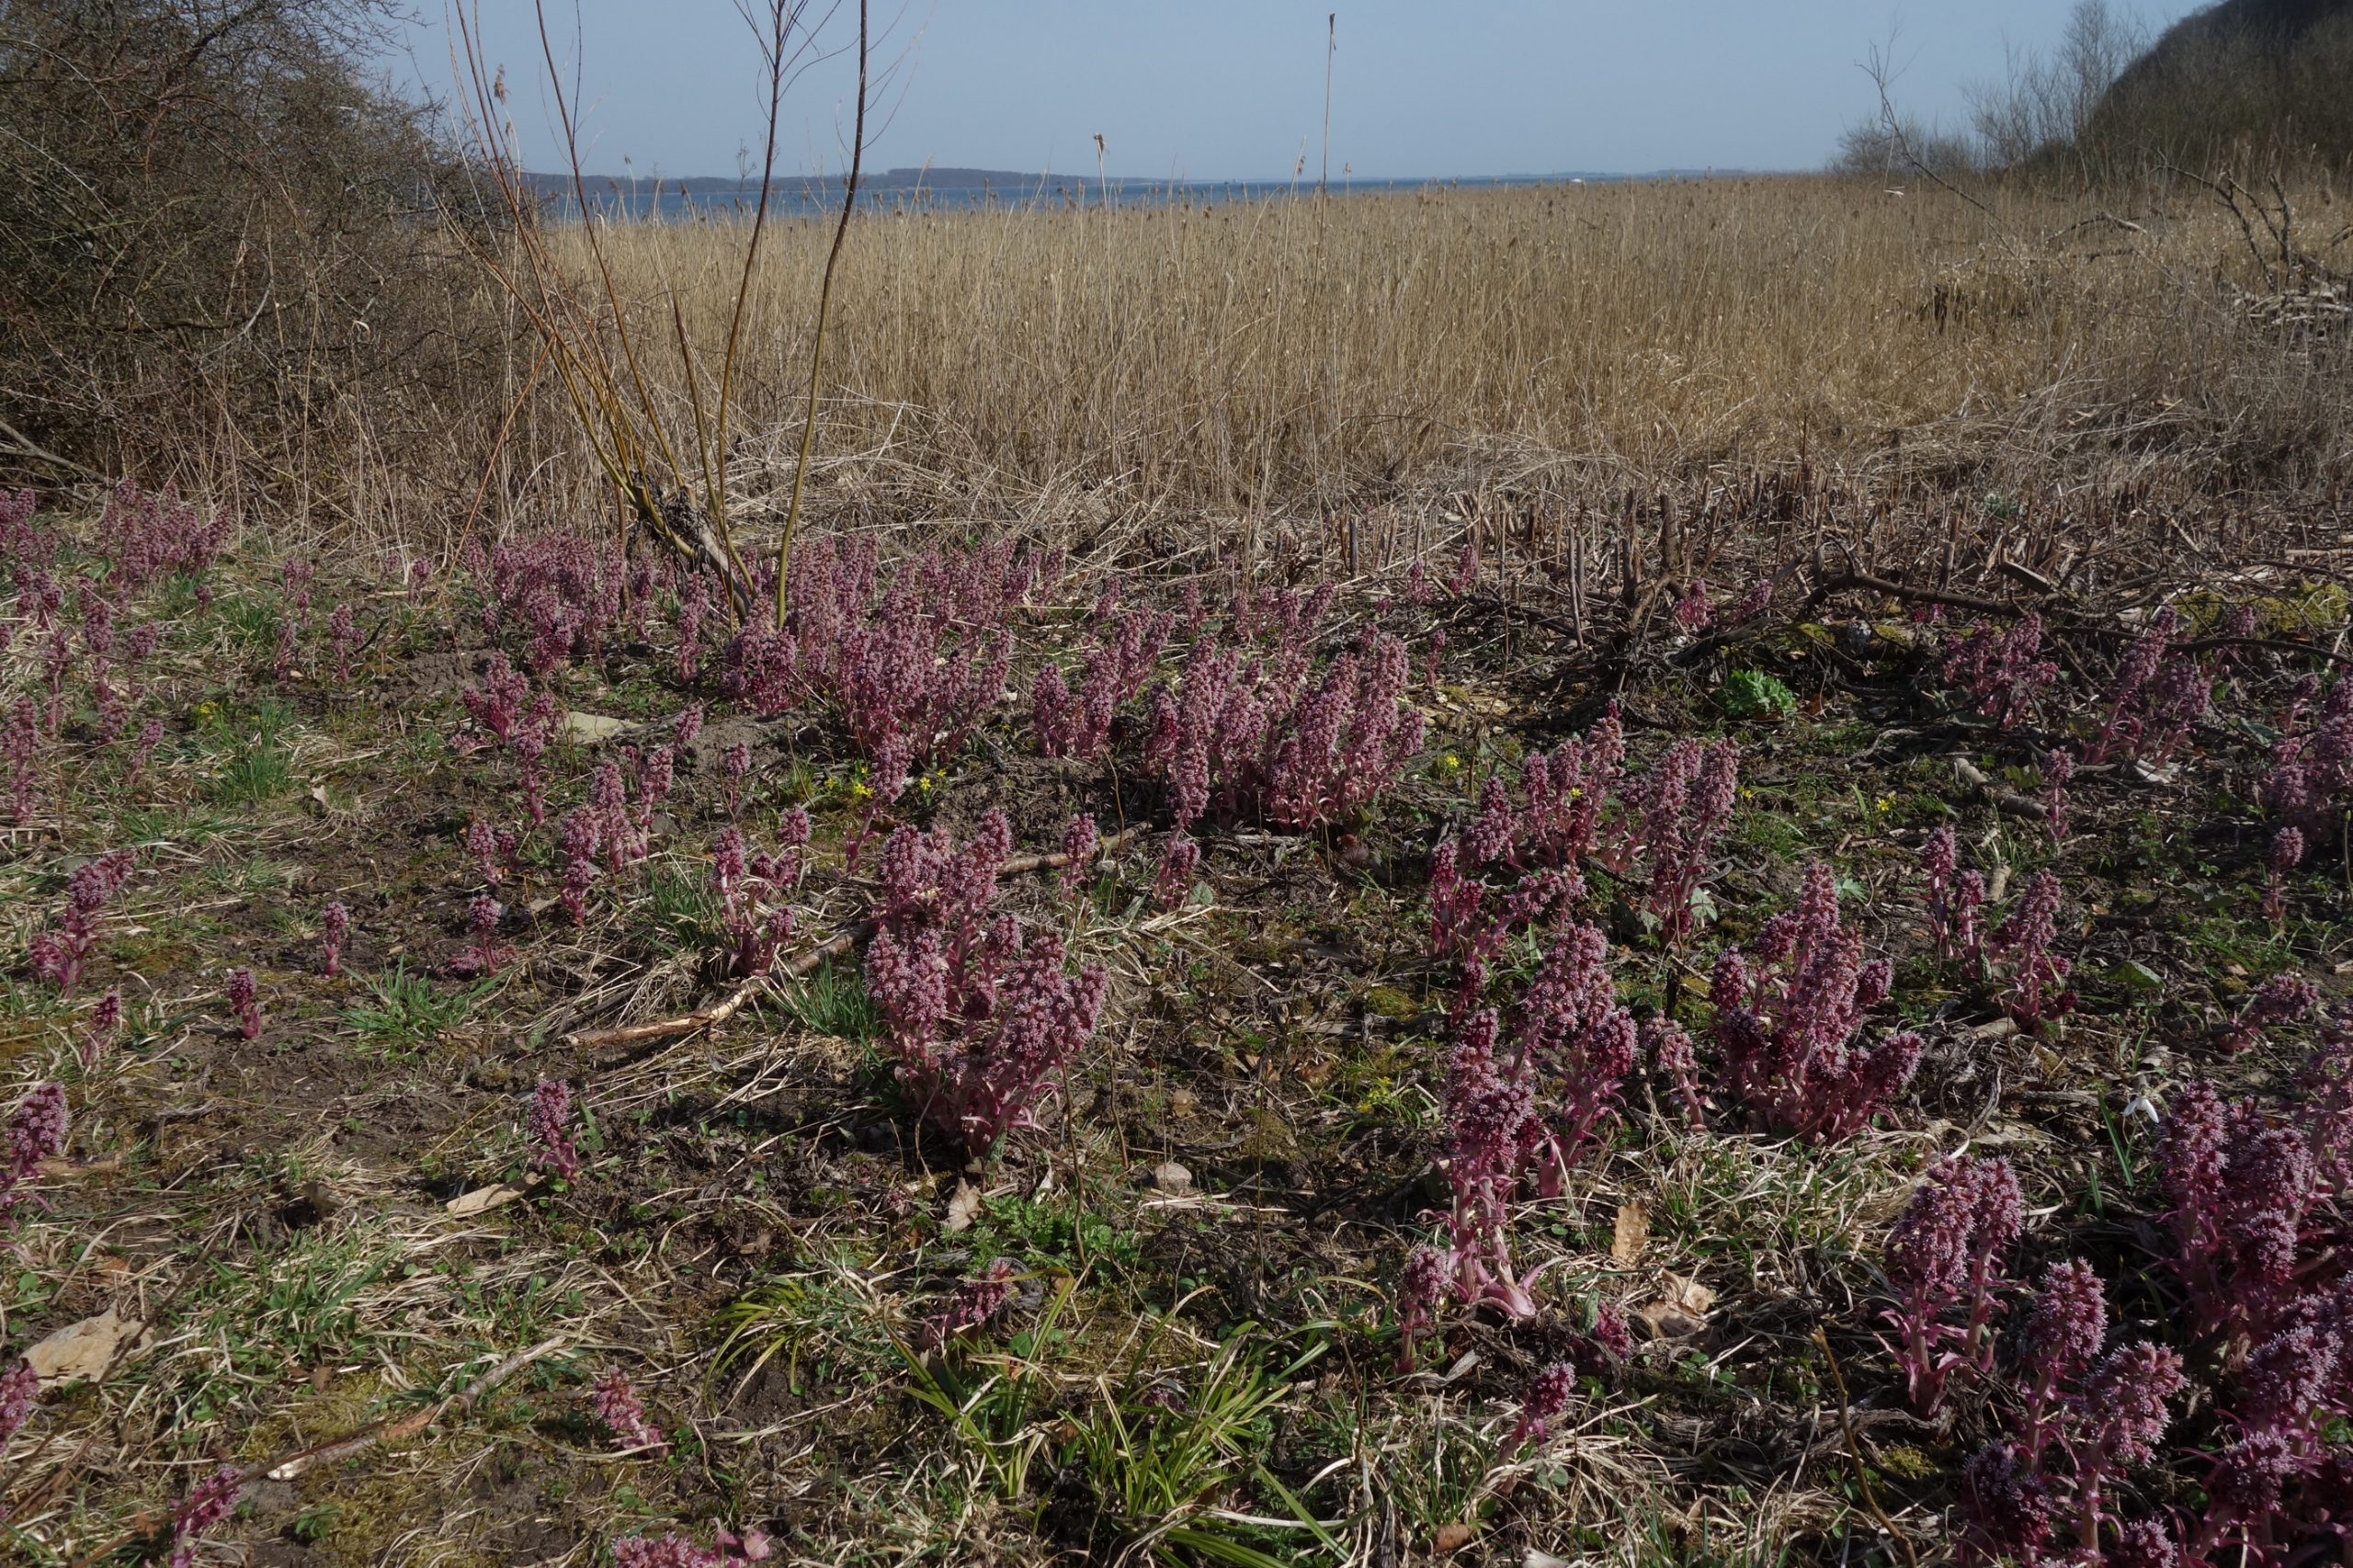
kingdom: Plantae
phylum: Tracheophyta
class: Magnoliopsida
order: Asterales
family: Asteraceae
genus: Petasites
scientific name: Petasites hybridus
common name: Rød hestehov
